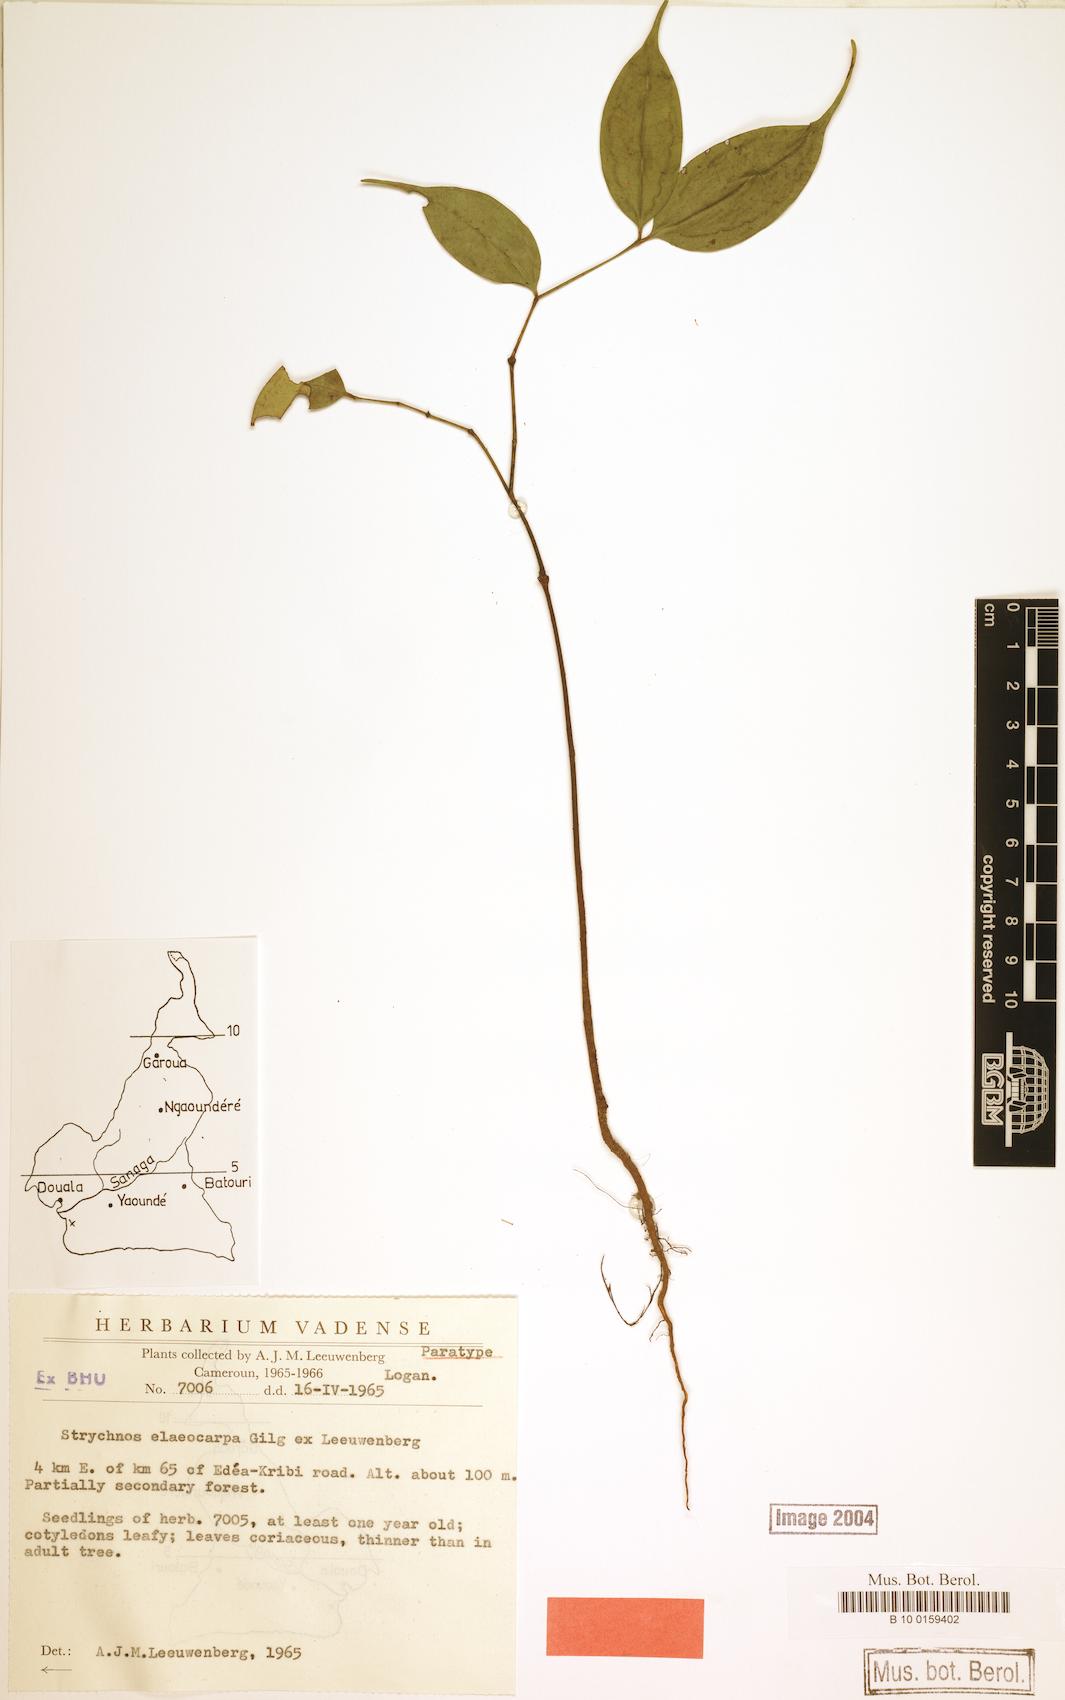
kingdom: Plantae
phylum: Tracheophyta
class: Magnoliopsida
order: Gentianales
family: Loganiaceae
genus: Strychnos
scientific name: Strychnos elaeocarpa
